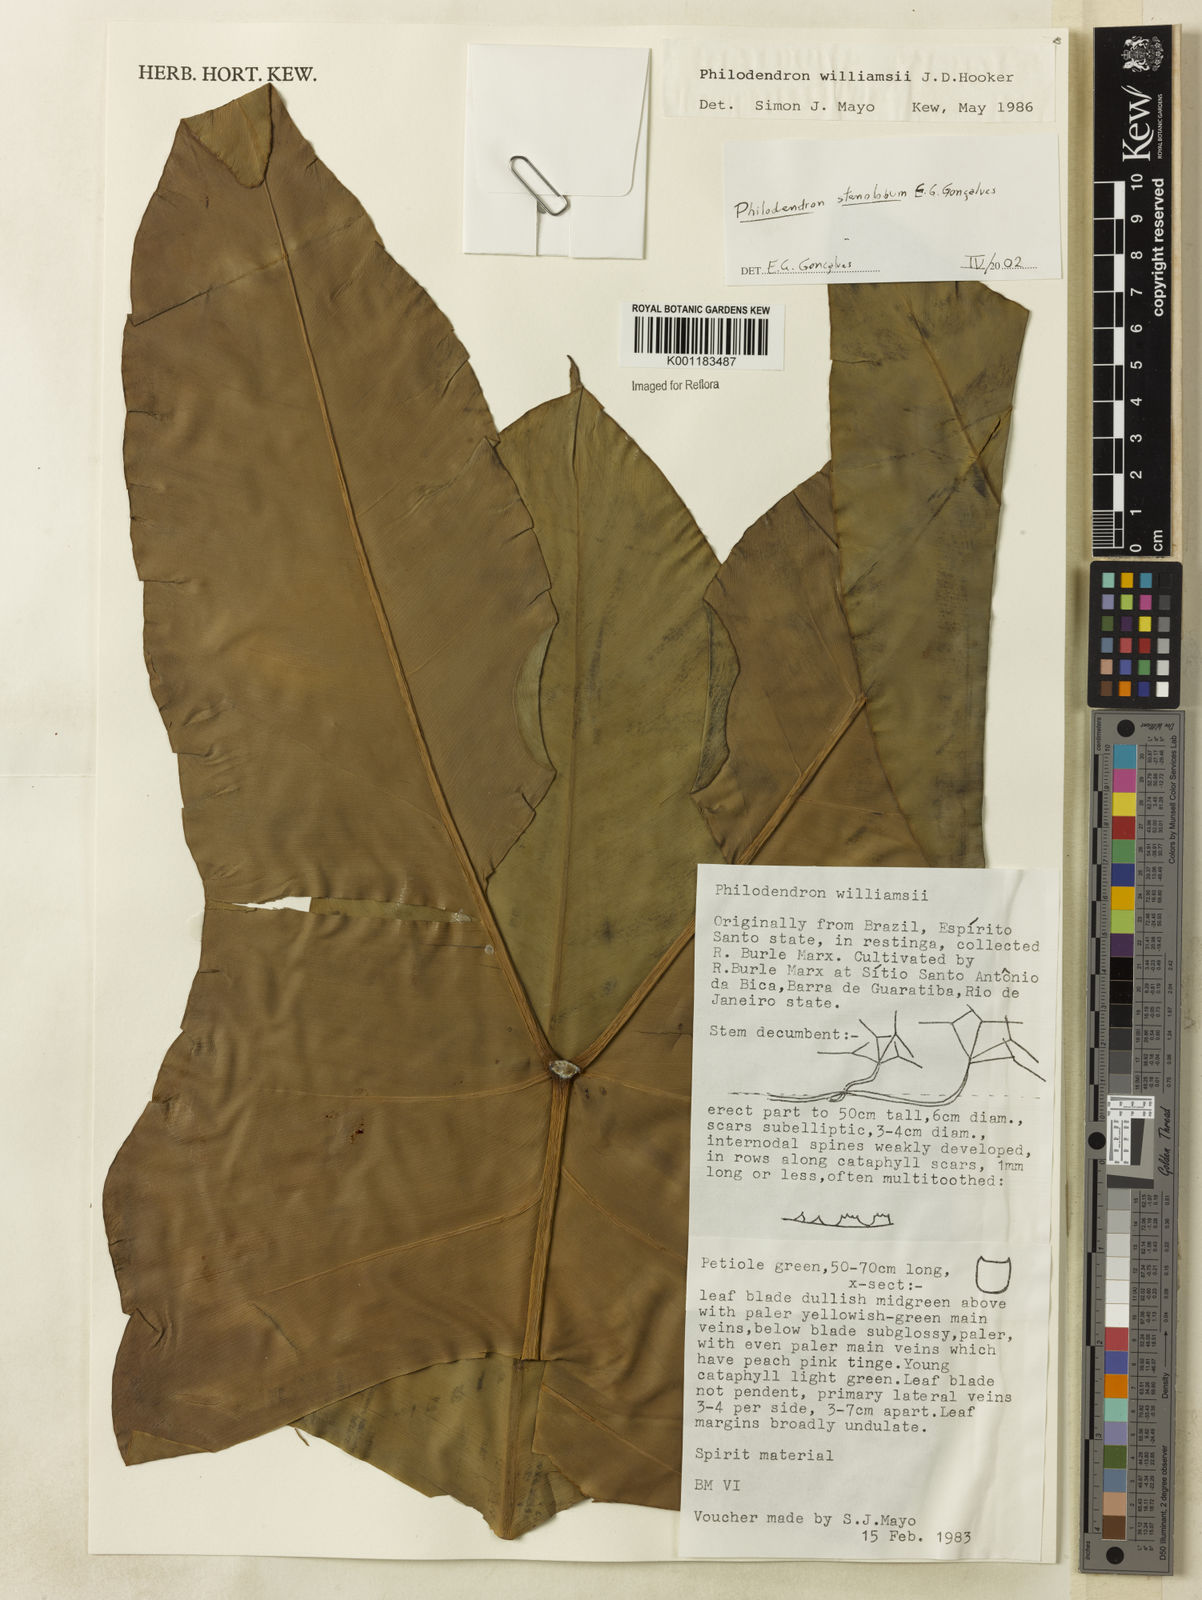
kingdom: Plantae
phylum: Tracheophyta
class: Liliopsida
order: Alismatales
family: Araceae
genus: Thaumatophyllum
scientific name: Thaumatophyllum stenolobum
